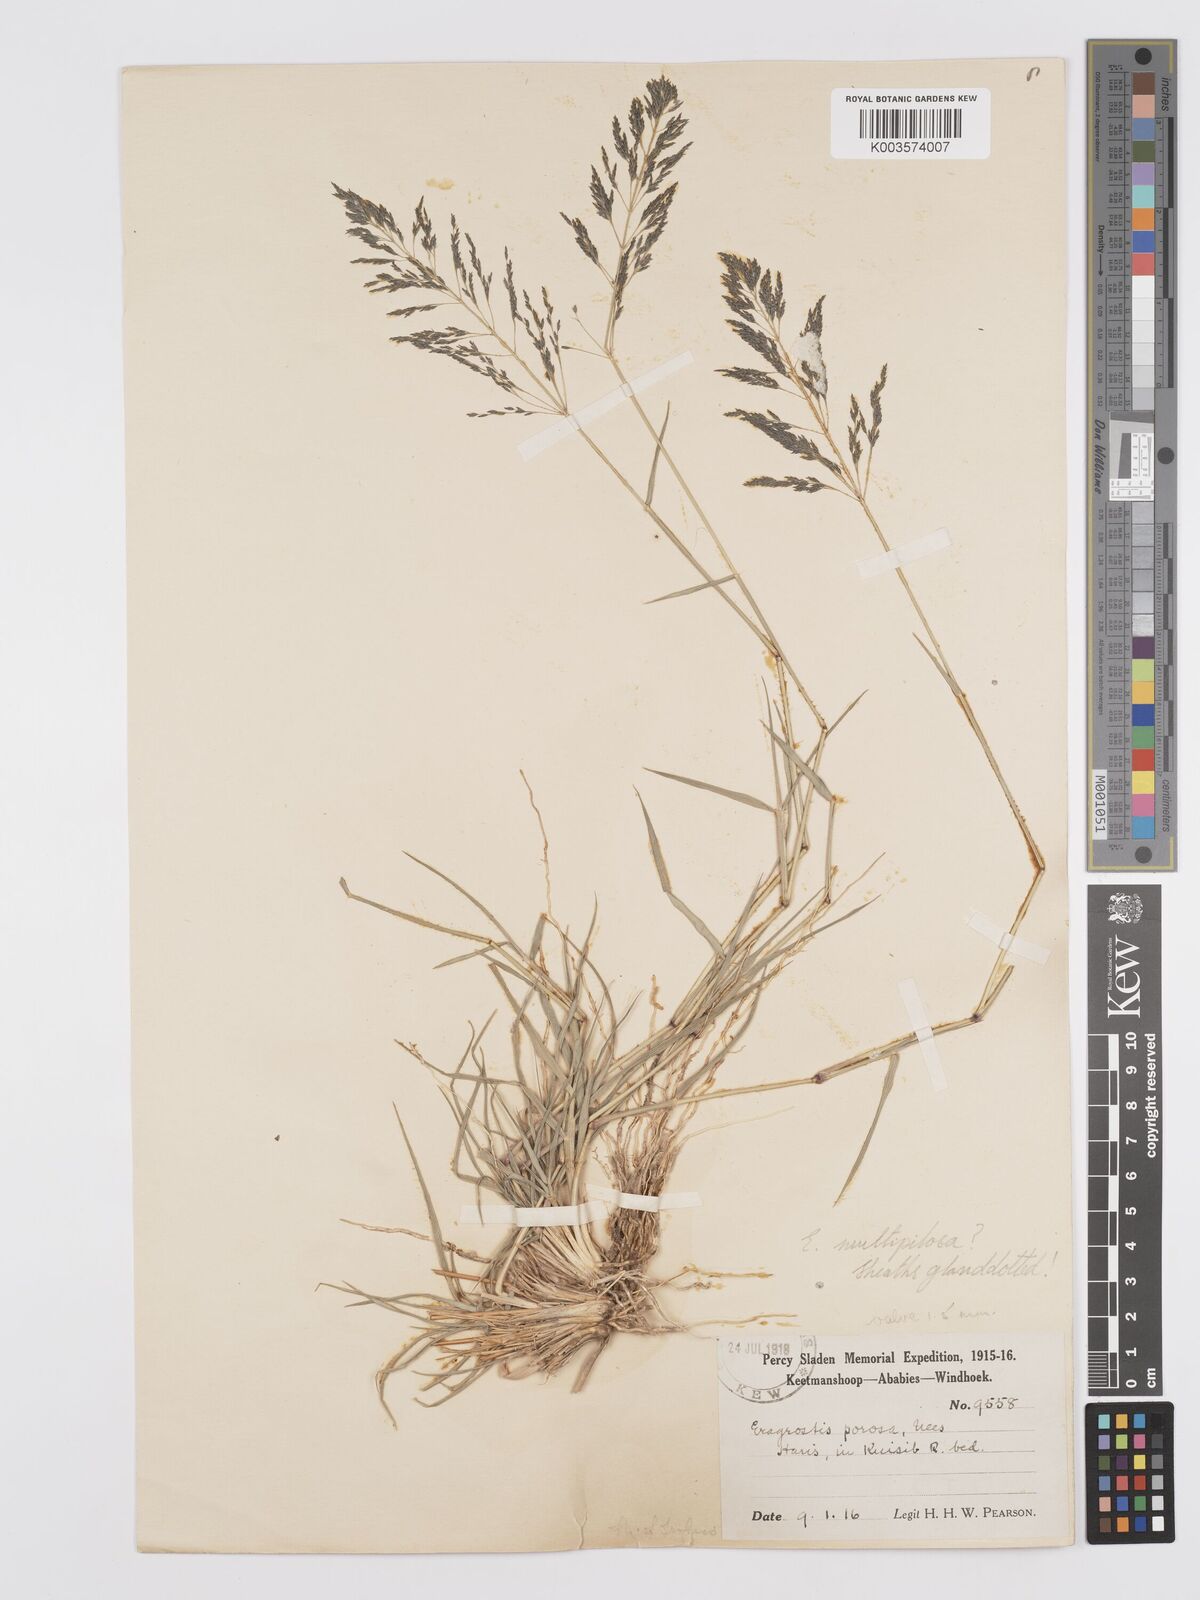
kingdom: Plantae
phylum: Tracheophyta
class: Liliopsida
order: Poales
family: Poaceae
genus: Eragrostis
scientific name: Eragrostis cylindriflora
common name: Cylinderflower lovegrass
